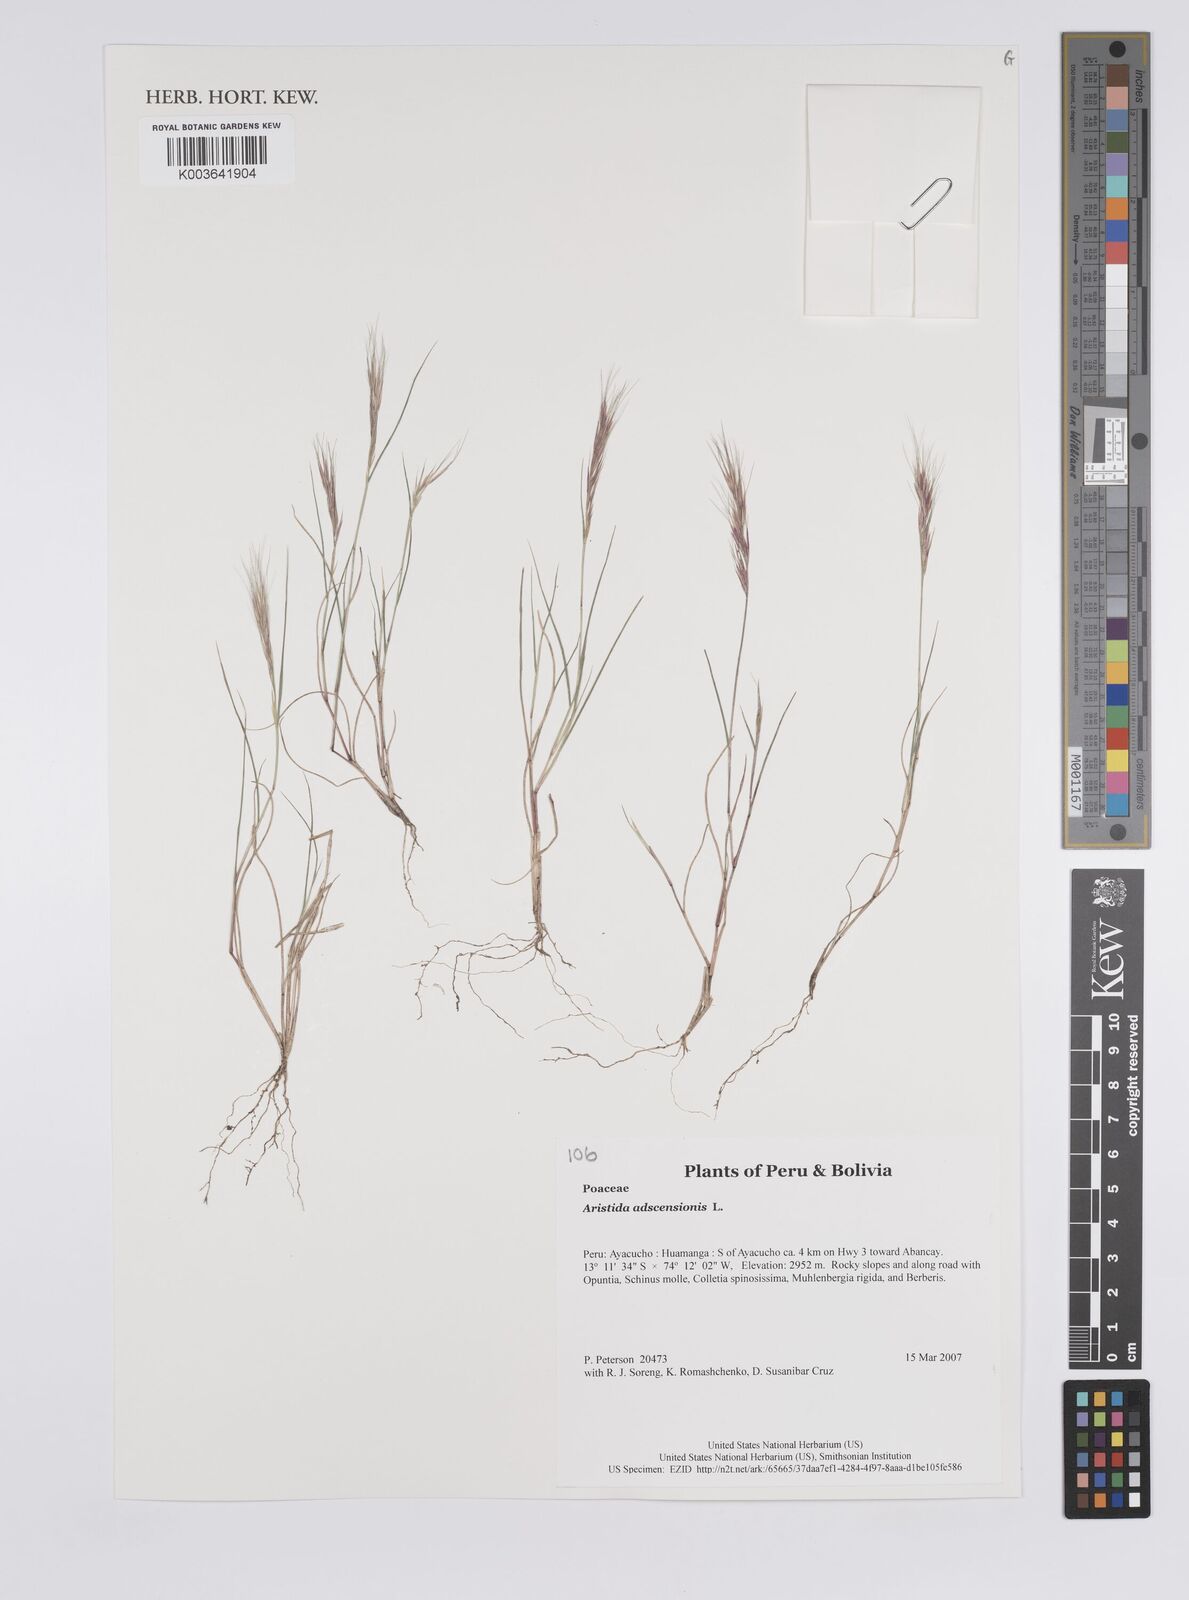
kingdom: Plantae
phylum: Tracheophyta
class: Liliopsida
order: Poales
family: Poaceae
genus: Aristida
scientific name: Aristida adscensionis
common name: Sixweeks threeawn
